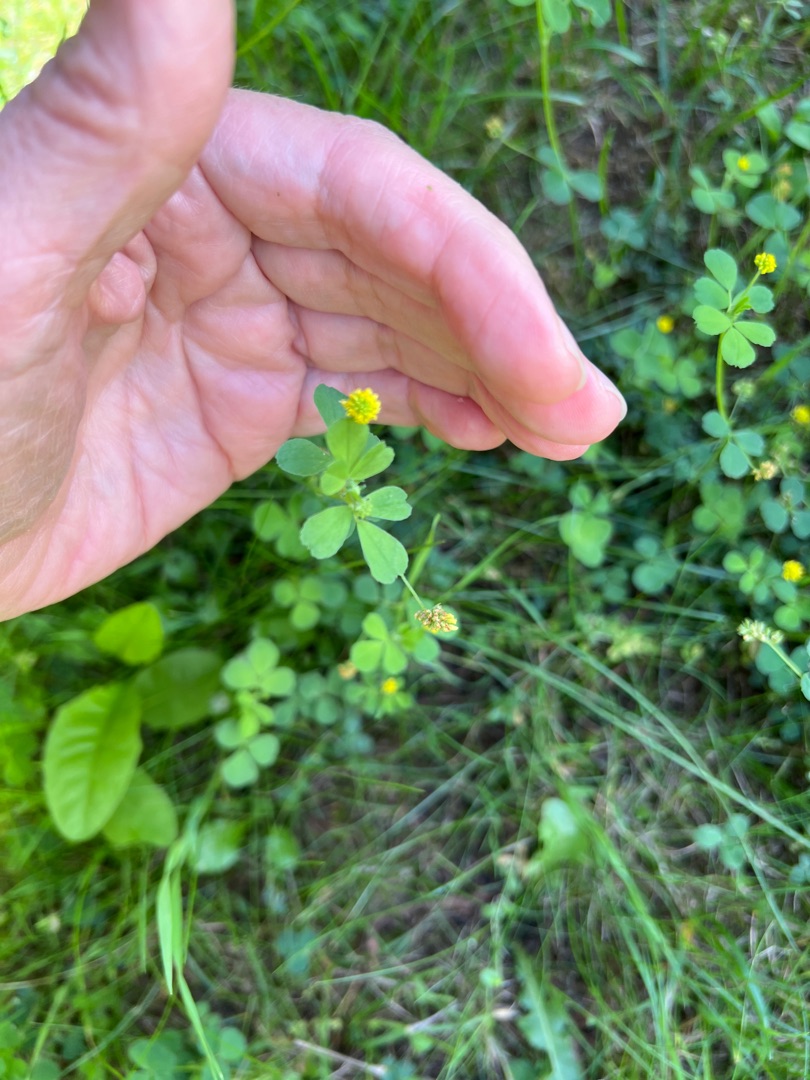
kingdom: Plantae
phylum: Tracheophyta
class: Magnoliopsida
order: Fabales
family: Fabaceae
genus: Medicago
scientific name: Medicago lupulina
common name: Humle-sneglebælg
